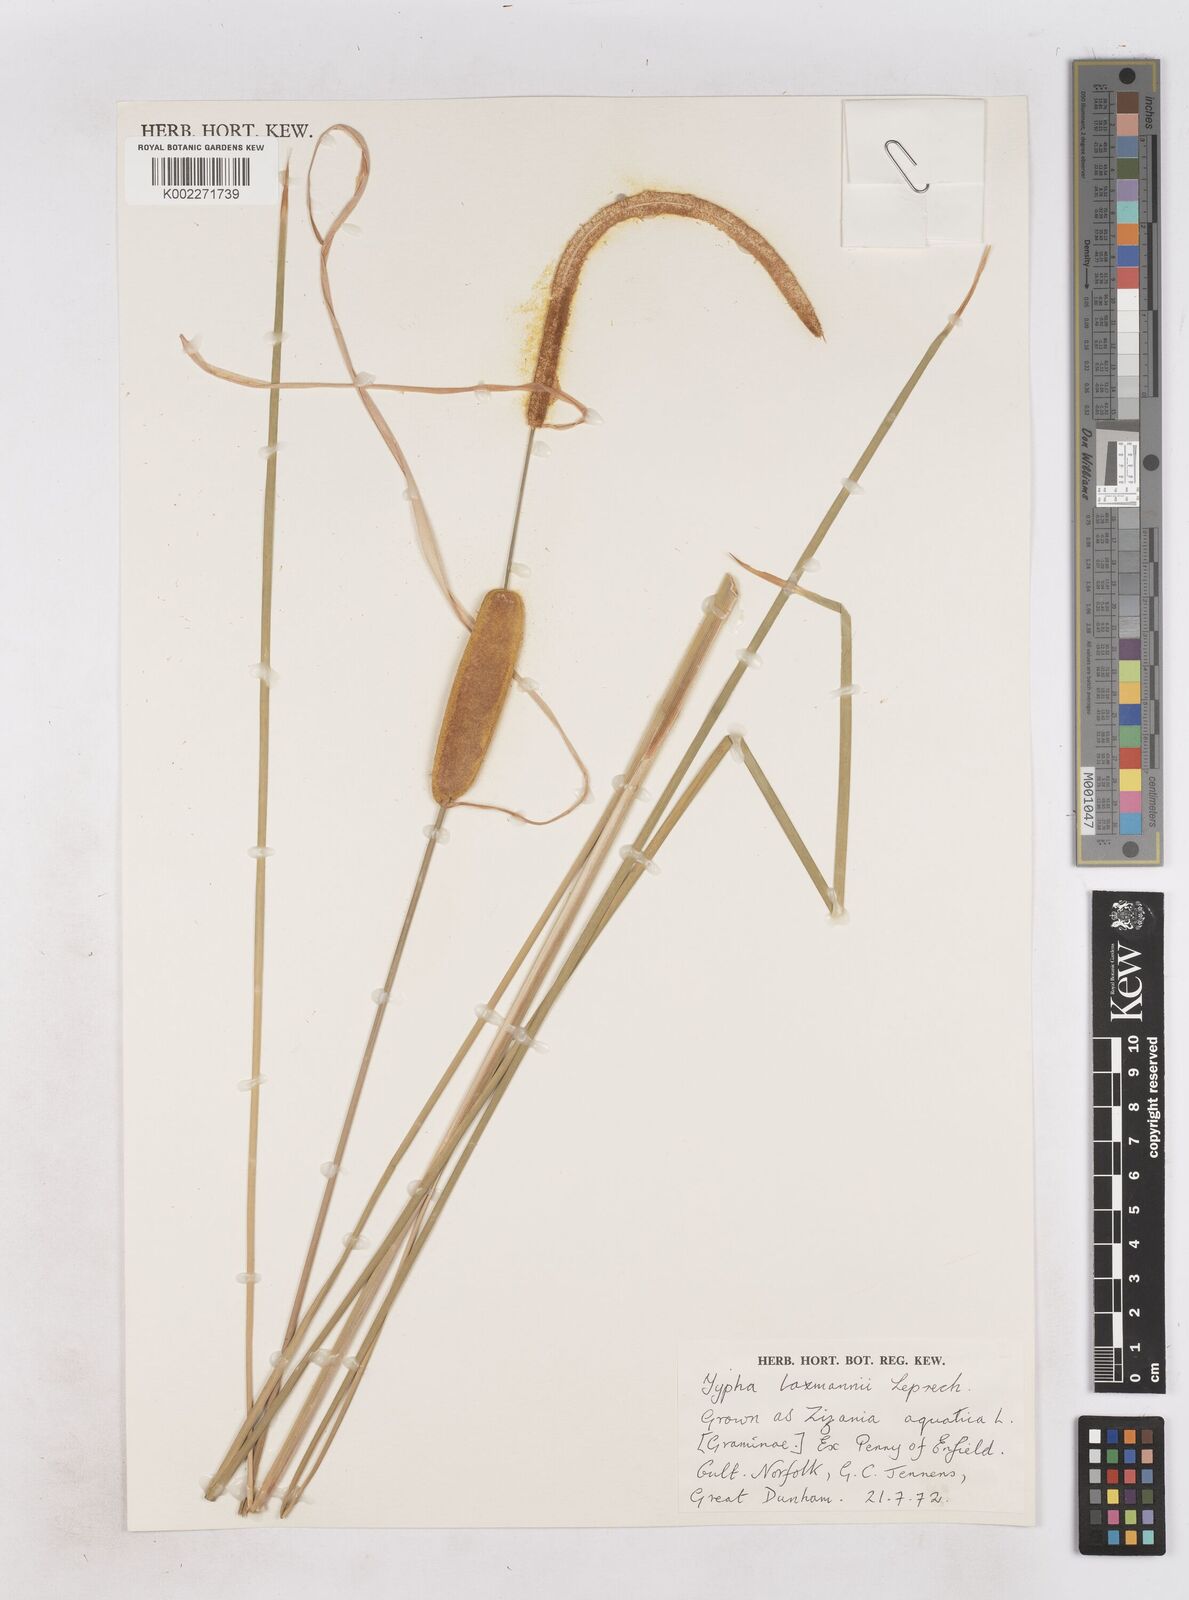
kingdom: Plantae
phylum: Tracheophyta
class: Liliopsida
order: Poales
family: Typhaceae
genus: Typha
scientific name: Typha laxmannii
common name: Laxman’s bulrush
